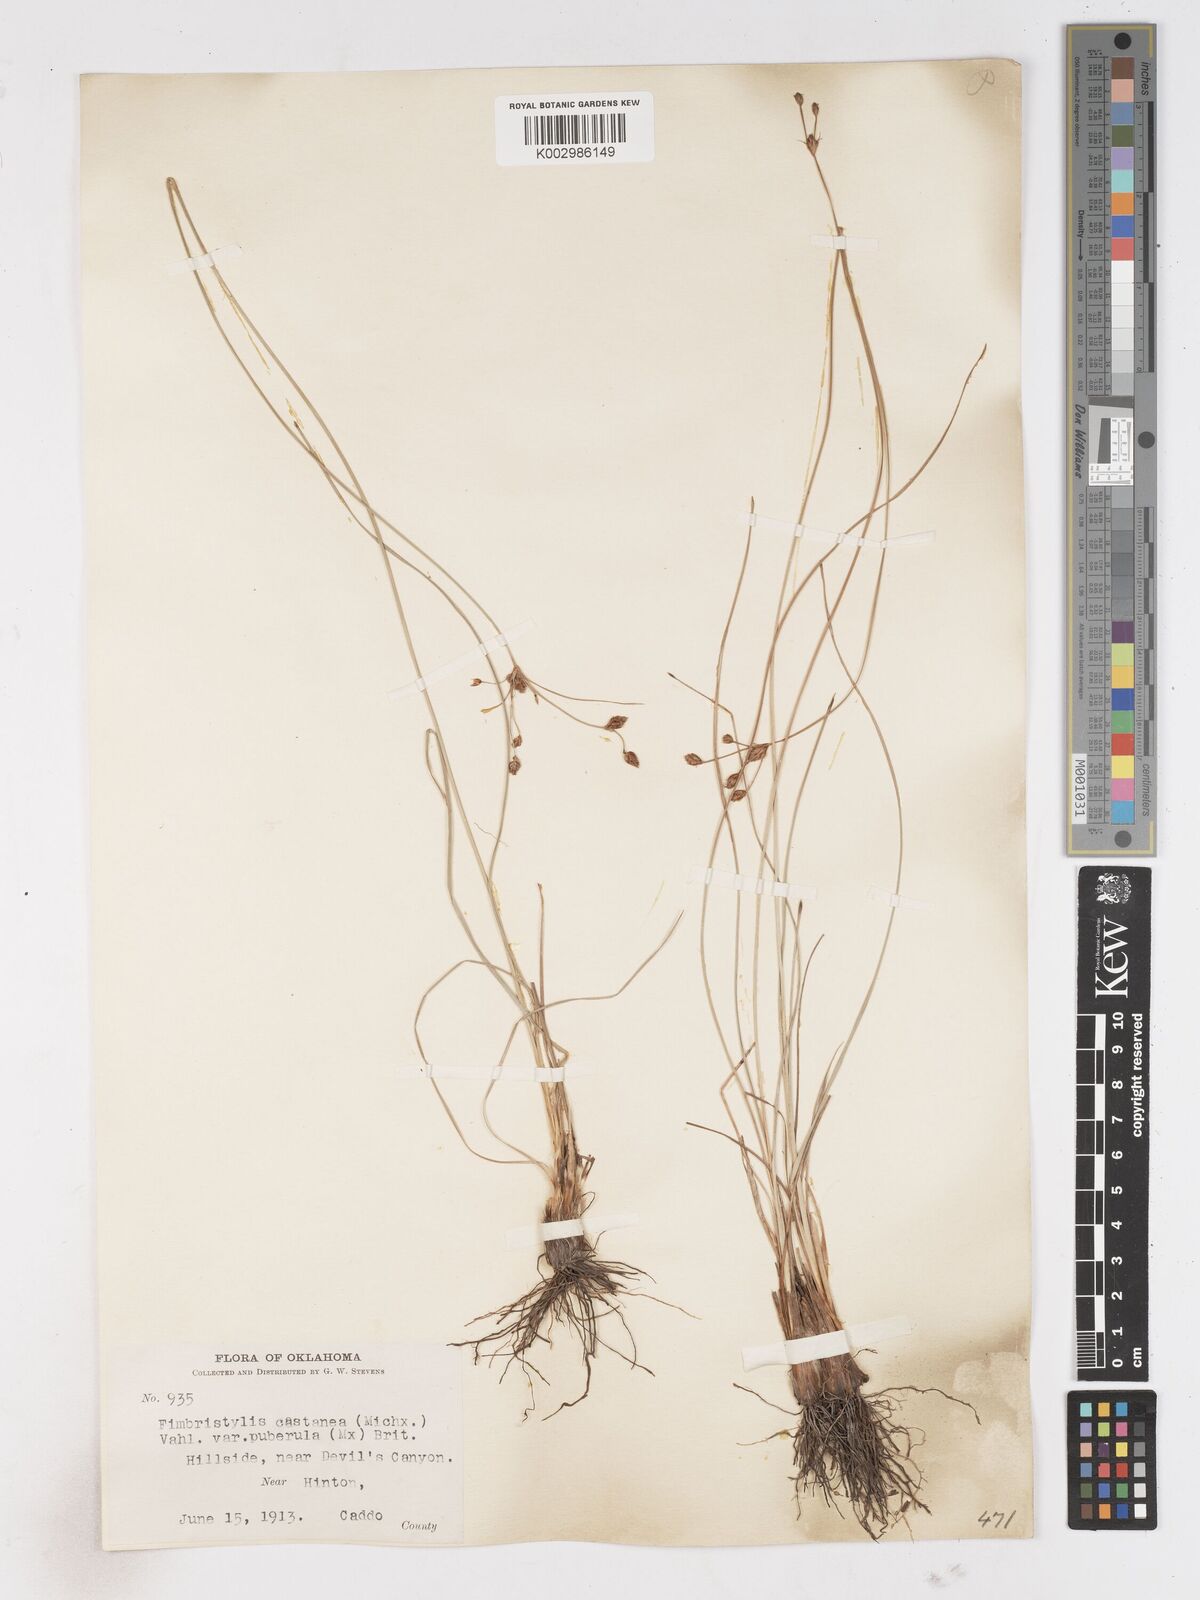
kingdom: Plantae
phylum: Tracheophyta
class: Liliopsida
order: Poales
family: Cyperaceae
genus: Fimbristylis
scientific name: Fimbristylis spadicea
